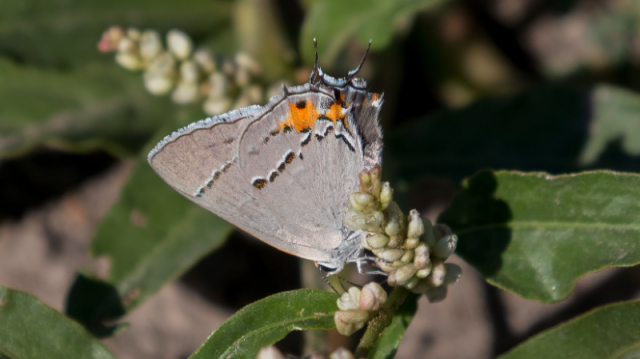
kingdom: Animalia
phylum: Arthropoda
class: Insecta
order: Lepidoptera
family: Lycaenidae
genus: Strymon
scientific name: Strymon melinus
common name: Gray Hairstreak
